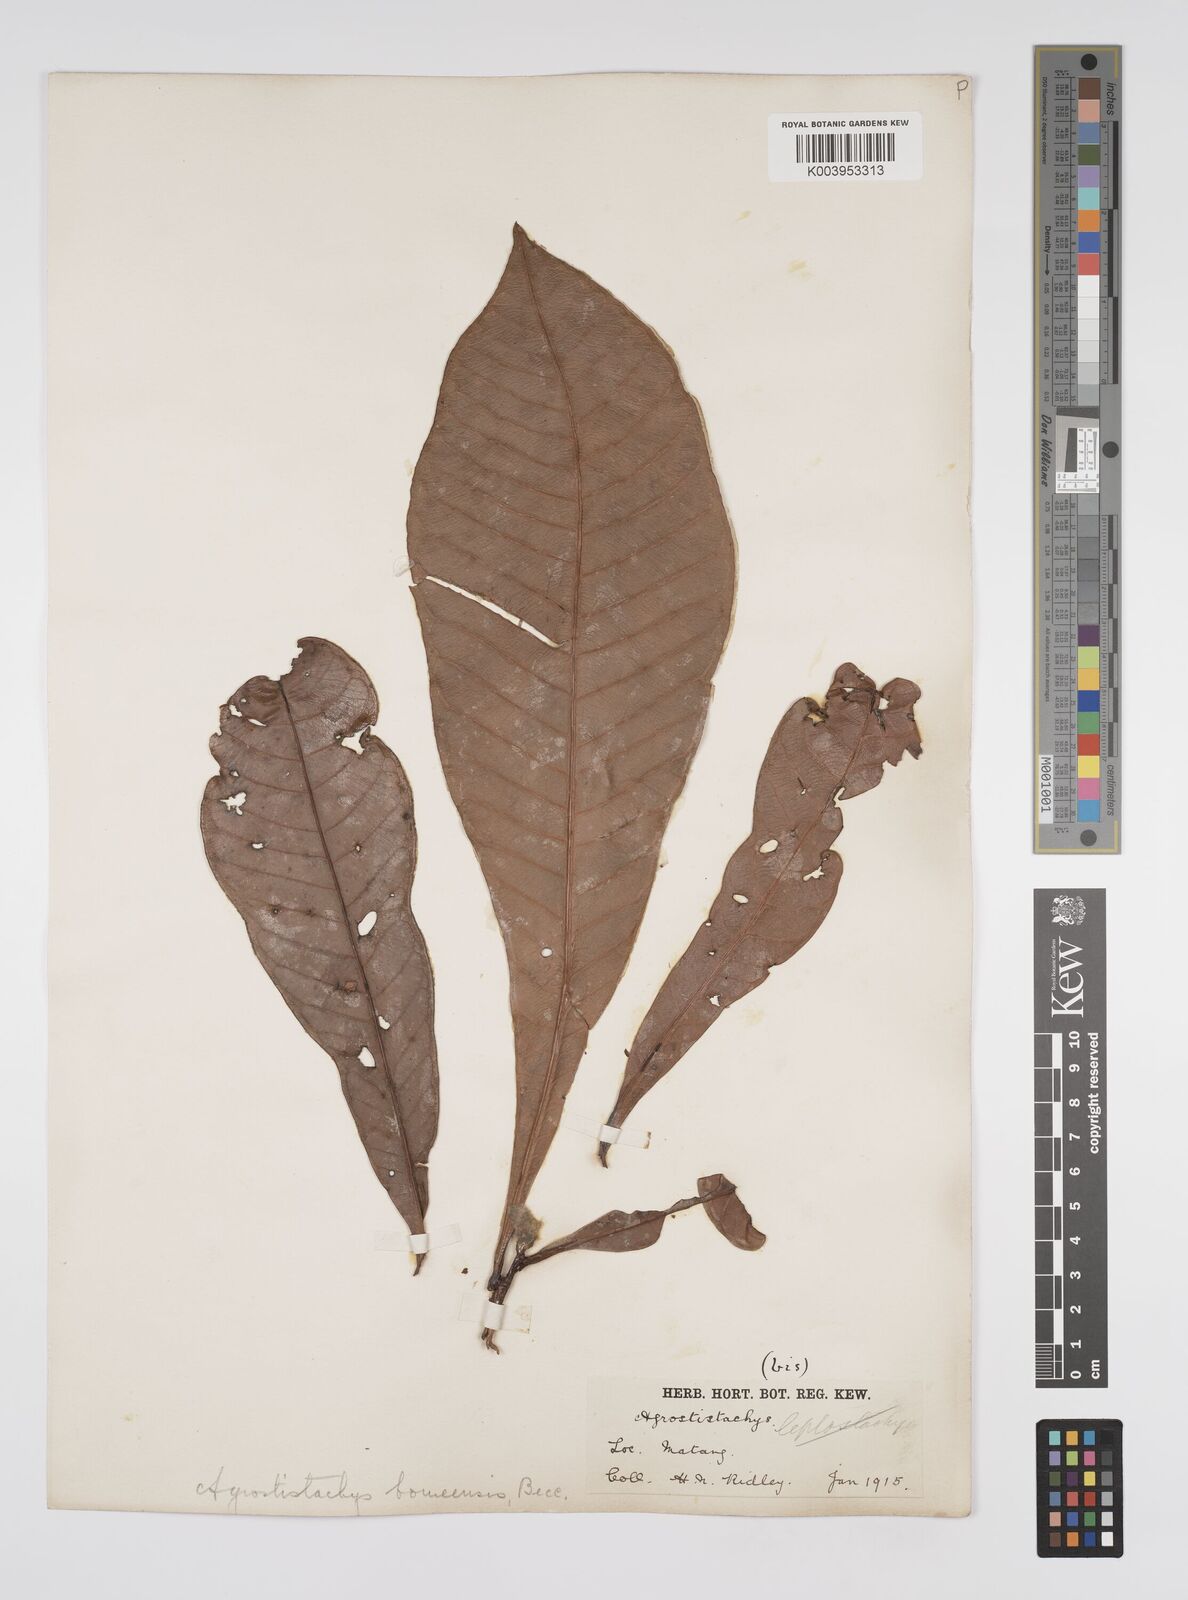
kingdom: Plantae
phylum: Tracheophyta
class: Magnoliopsida
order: Malpighiales
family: Euphorbiaceae
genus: Agrostistachys
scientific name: Agrostistachys
